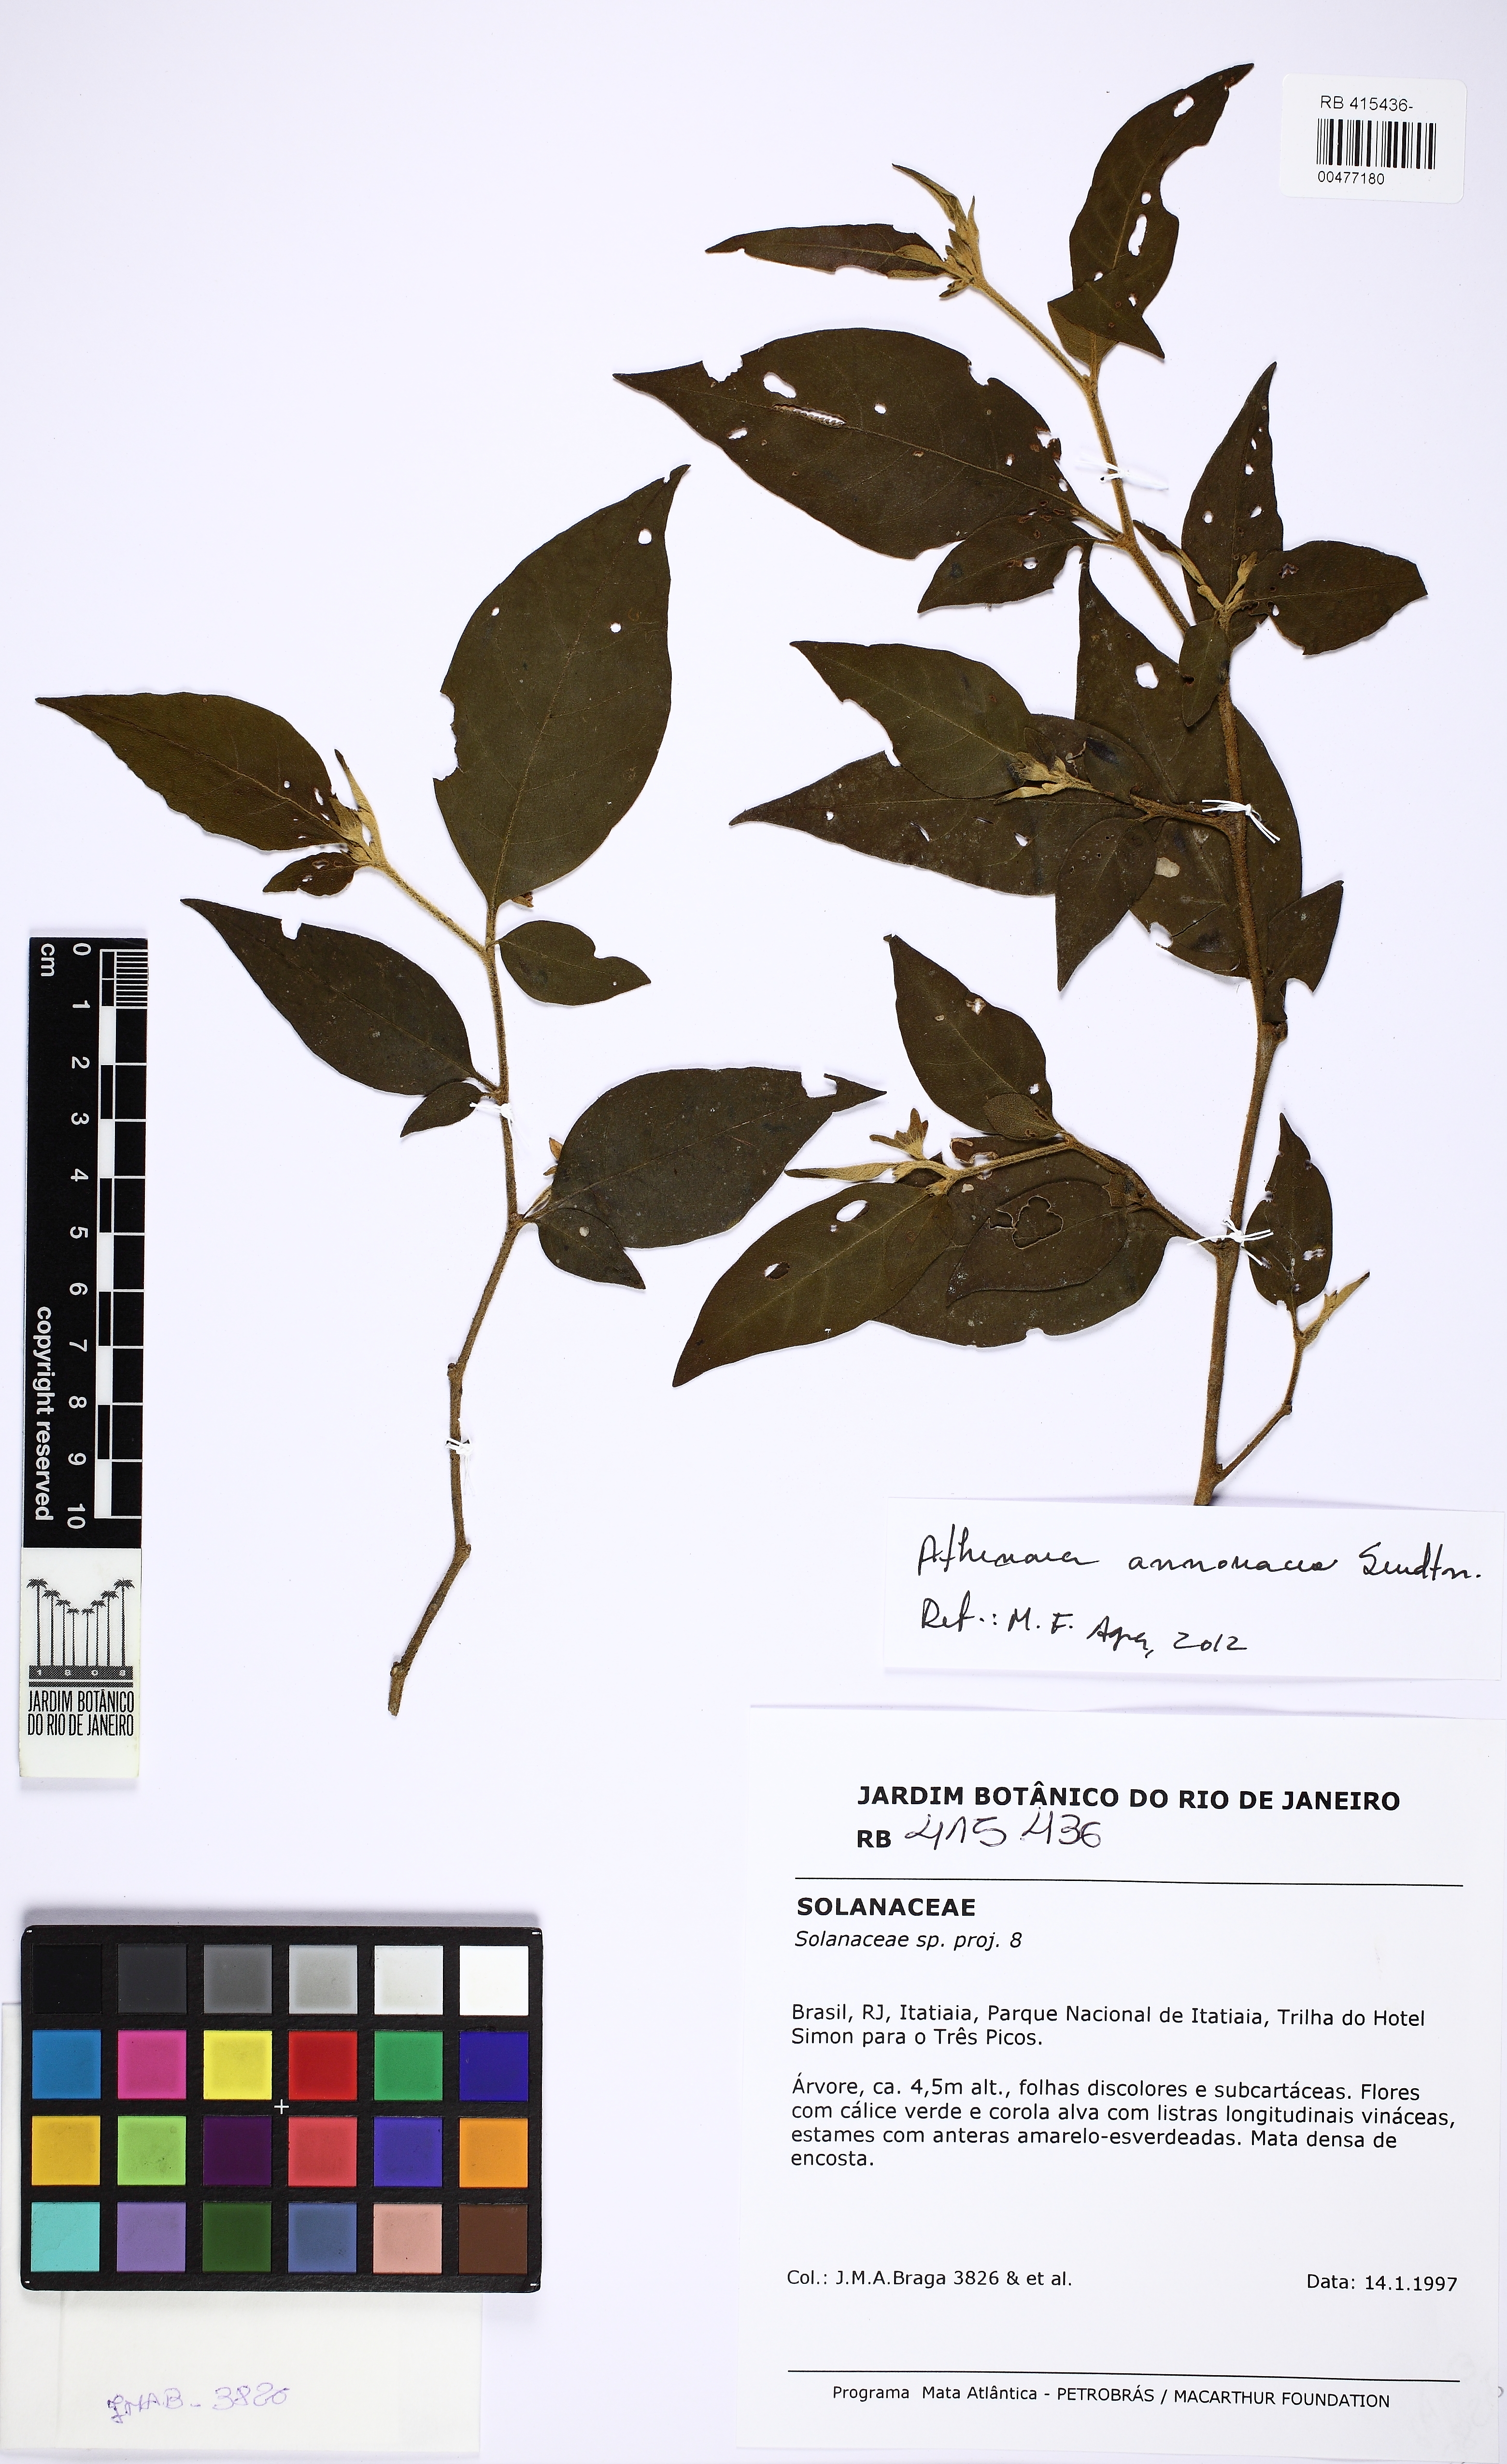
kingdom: Plantae
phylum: Tracheophyta
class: Magnoliopsida
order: Solanales
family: Solanaceae
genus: Athenaea
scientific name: Athenaea anonacea
